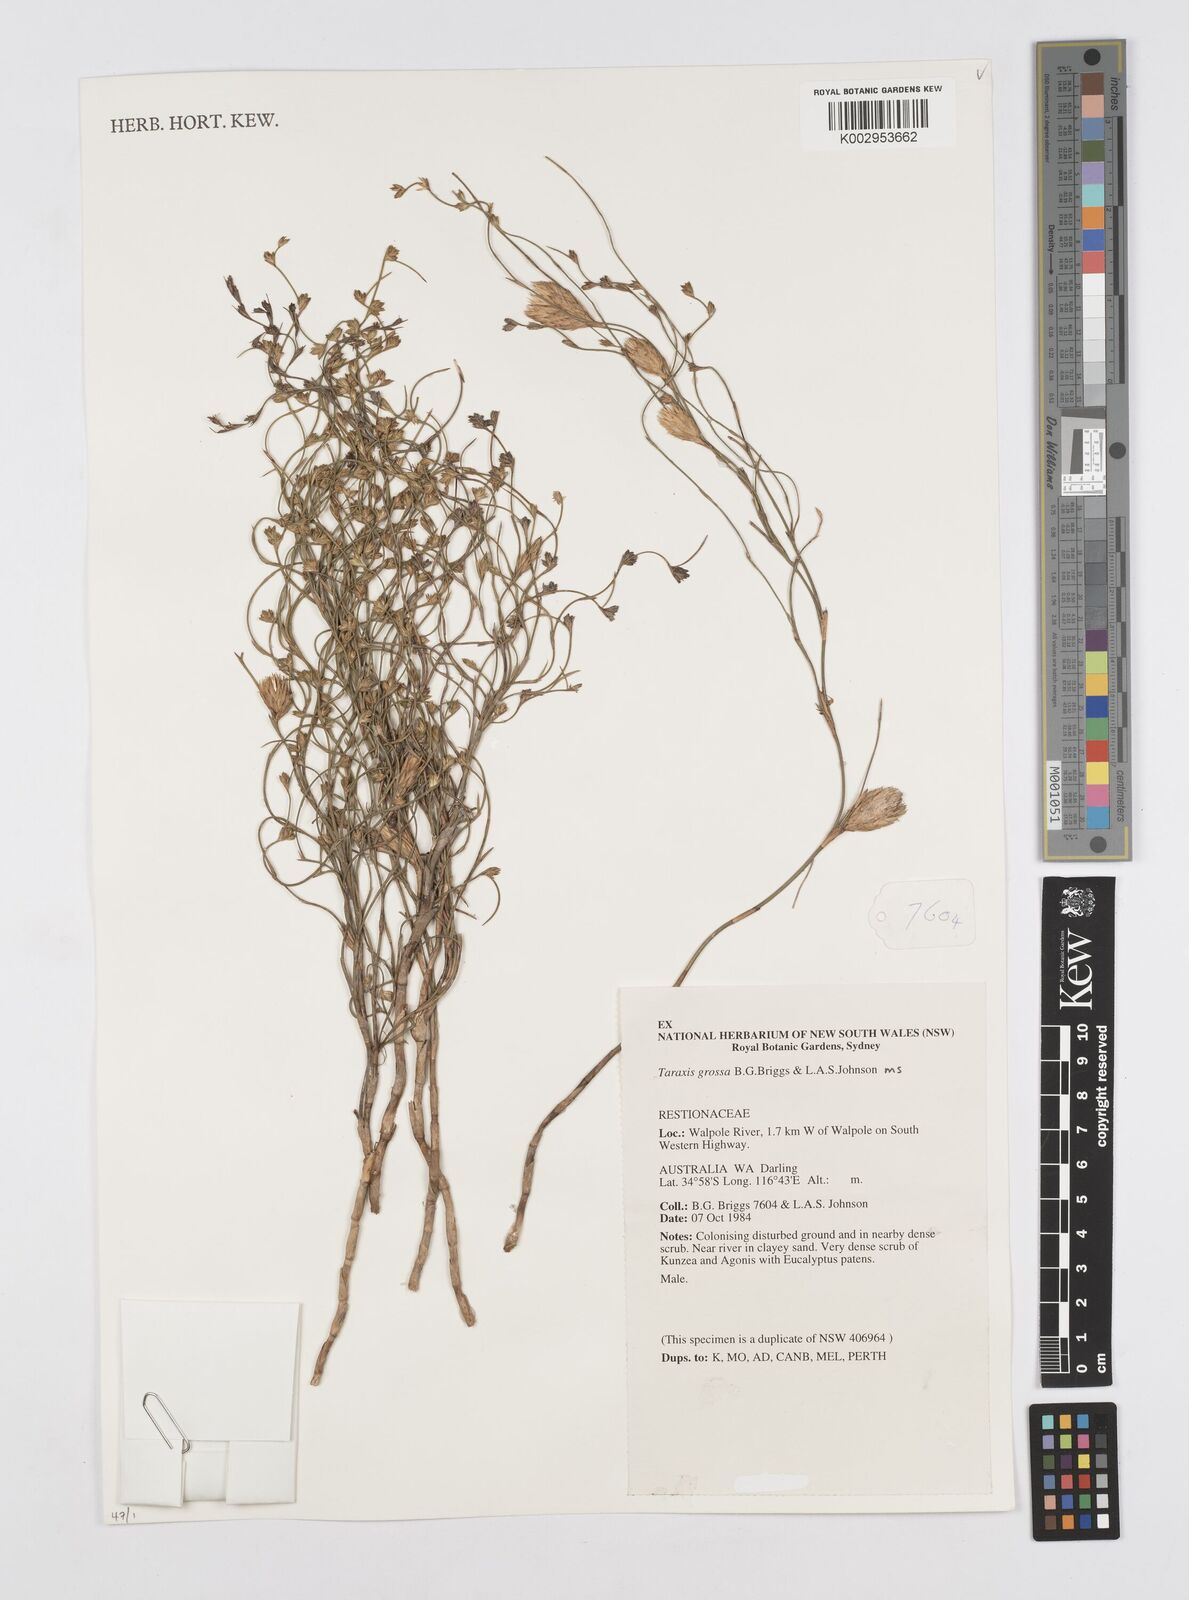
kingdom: Plantae
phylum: Tracheophyta
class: Liliopsida
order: Poales
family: Restionaceae
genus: Taraxis
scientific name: Taraxis grossa
